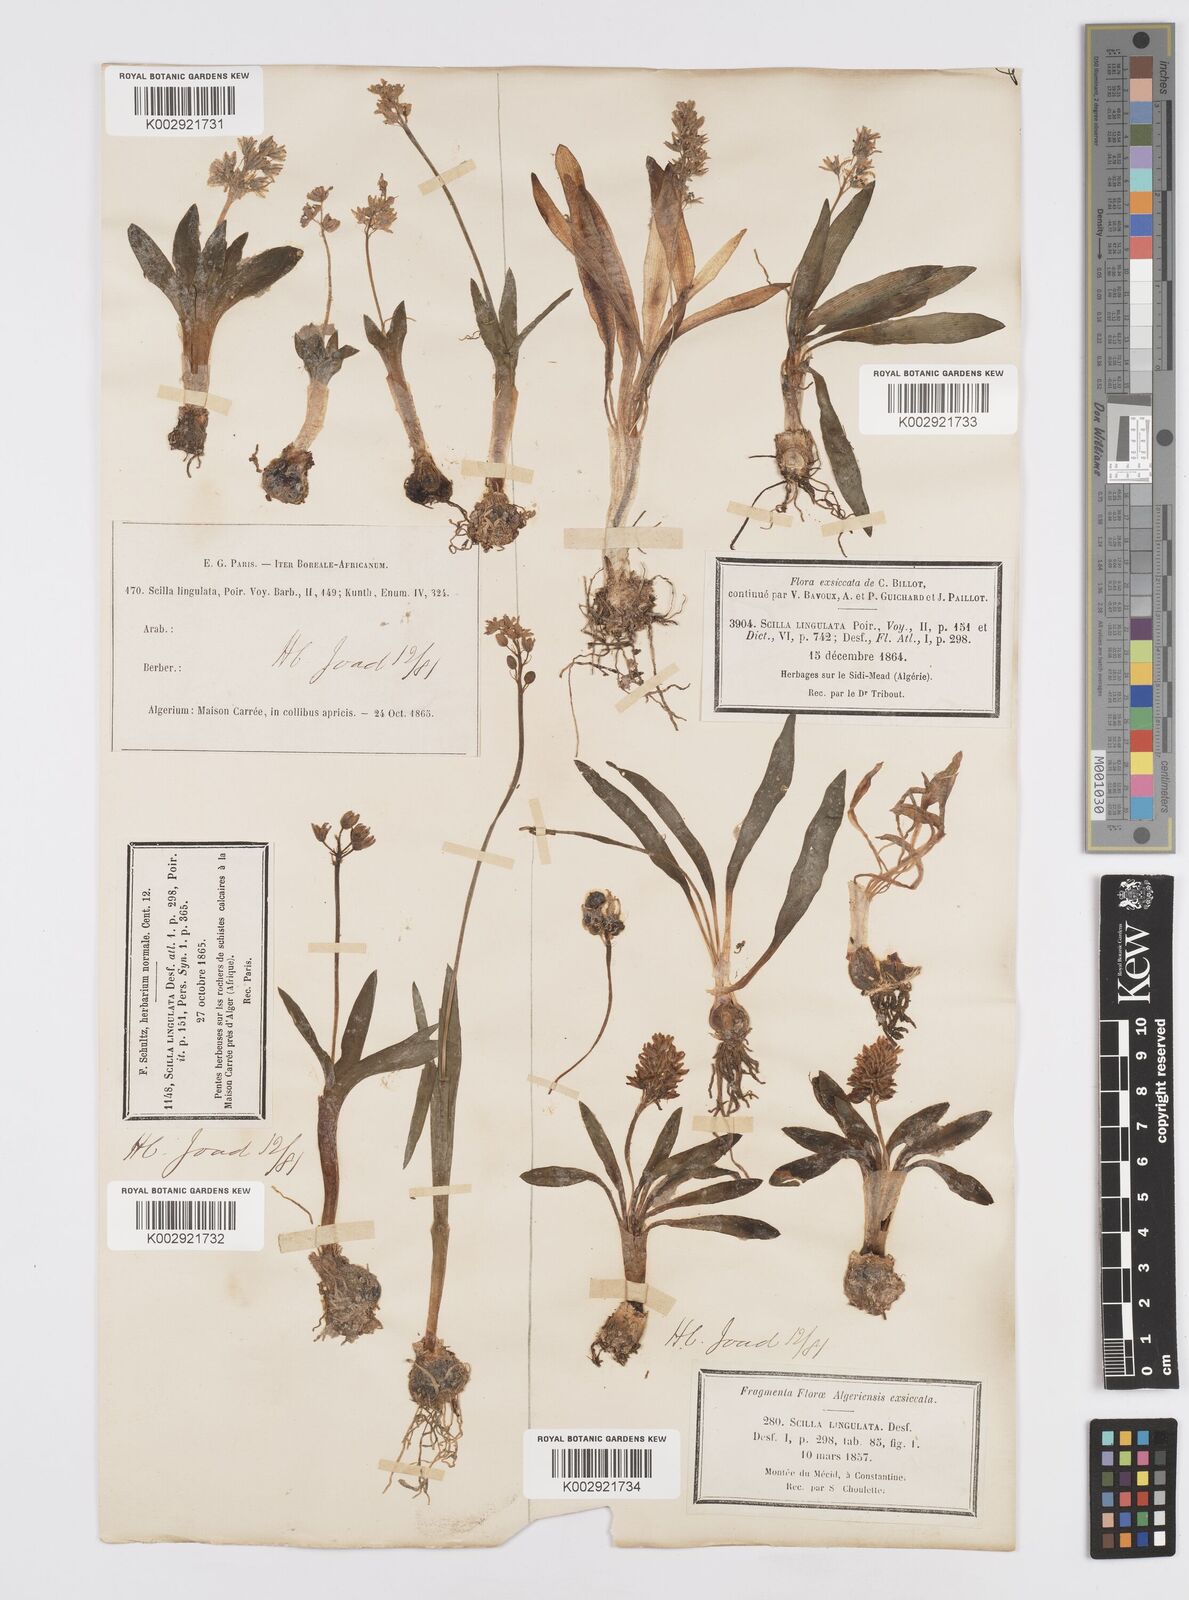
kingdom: Plantae
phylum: Tracheophyta
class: Liliopsida
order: Asparagales
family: Asparagaceae
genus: Hyacinthoides
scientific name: Hyacinthoides lingulata
